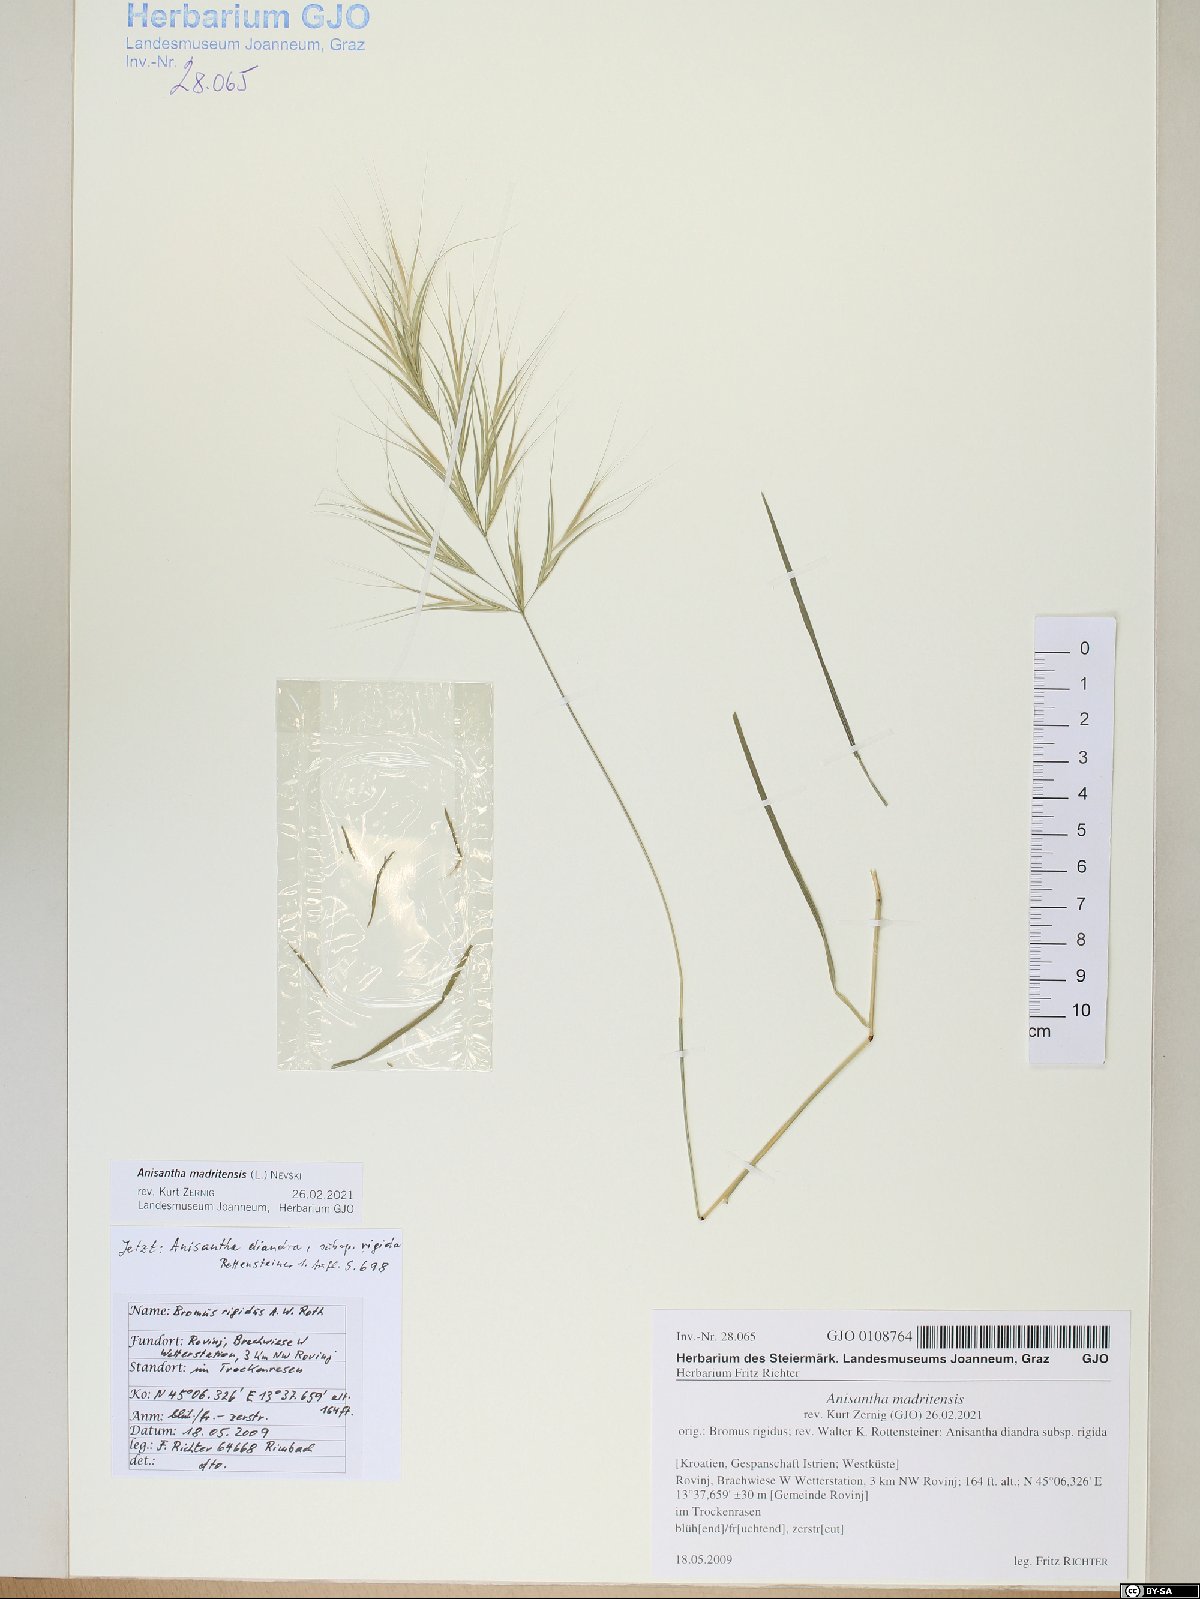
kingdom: Plantae
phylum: Tracheophyta
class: Liliopsida
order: Poales
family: Poaceae
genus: Bromus
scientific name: Bromus madritensis
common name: Compact brome
